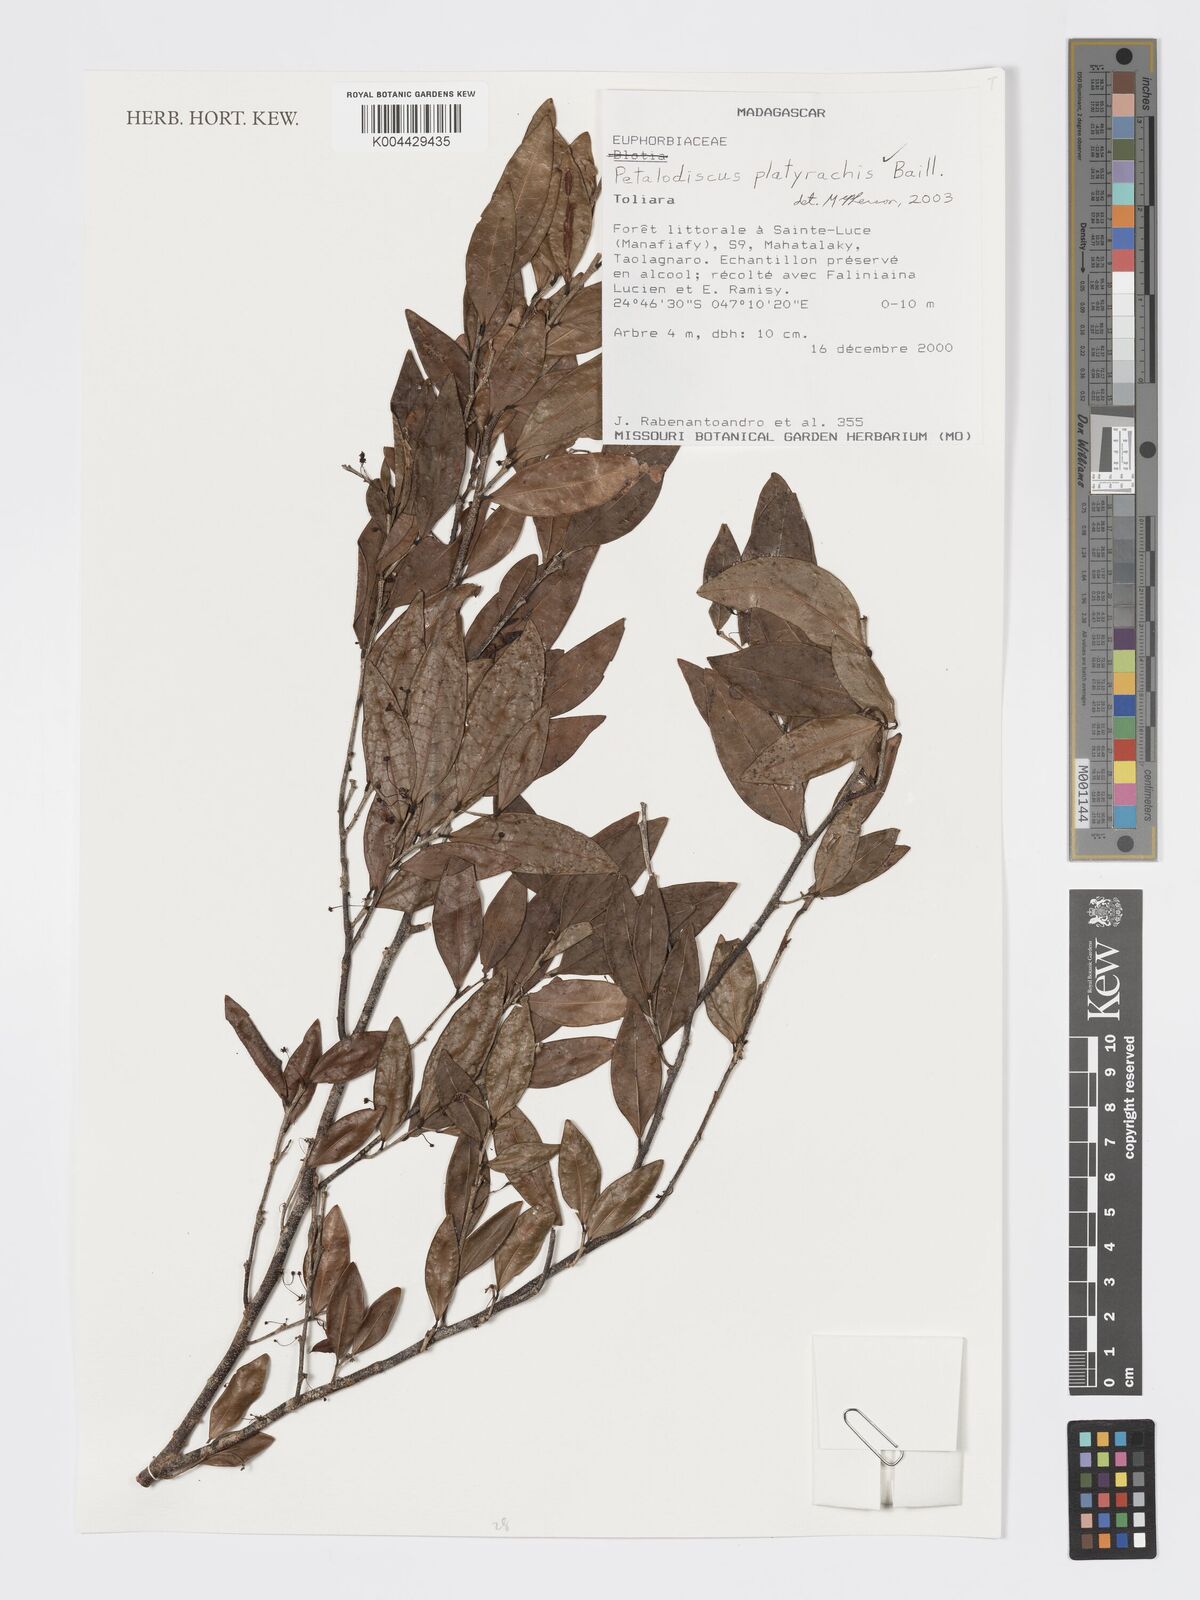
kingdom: Plantae
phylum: Tracheophyta
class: Magnoliopsida
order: Malpighiales
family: Phyllanthaceae
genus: Wielandia
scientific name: Wielandia platyrachis
